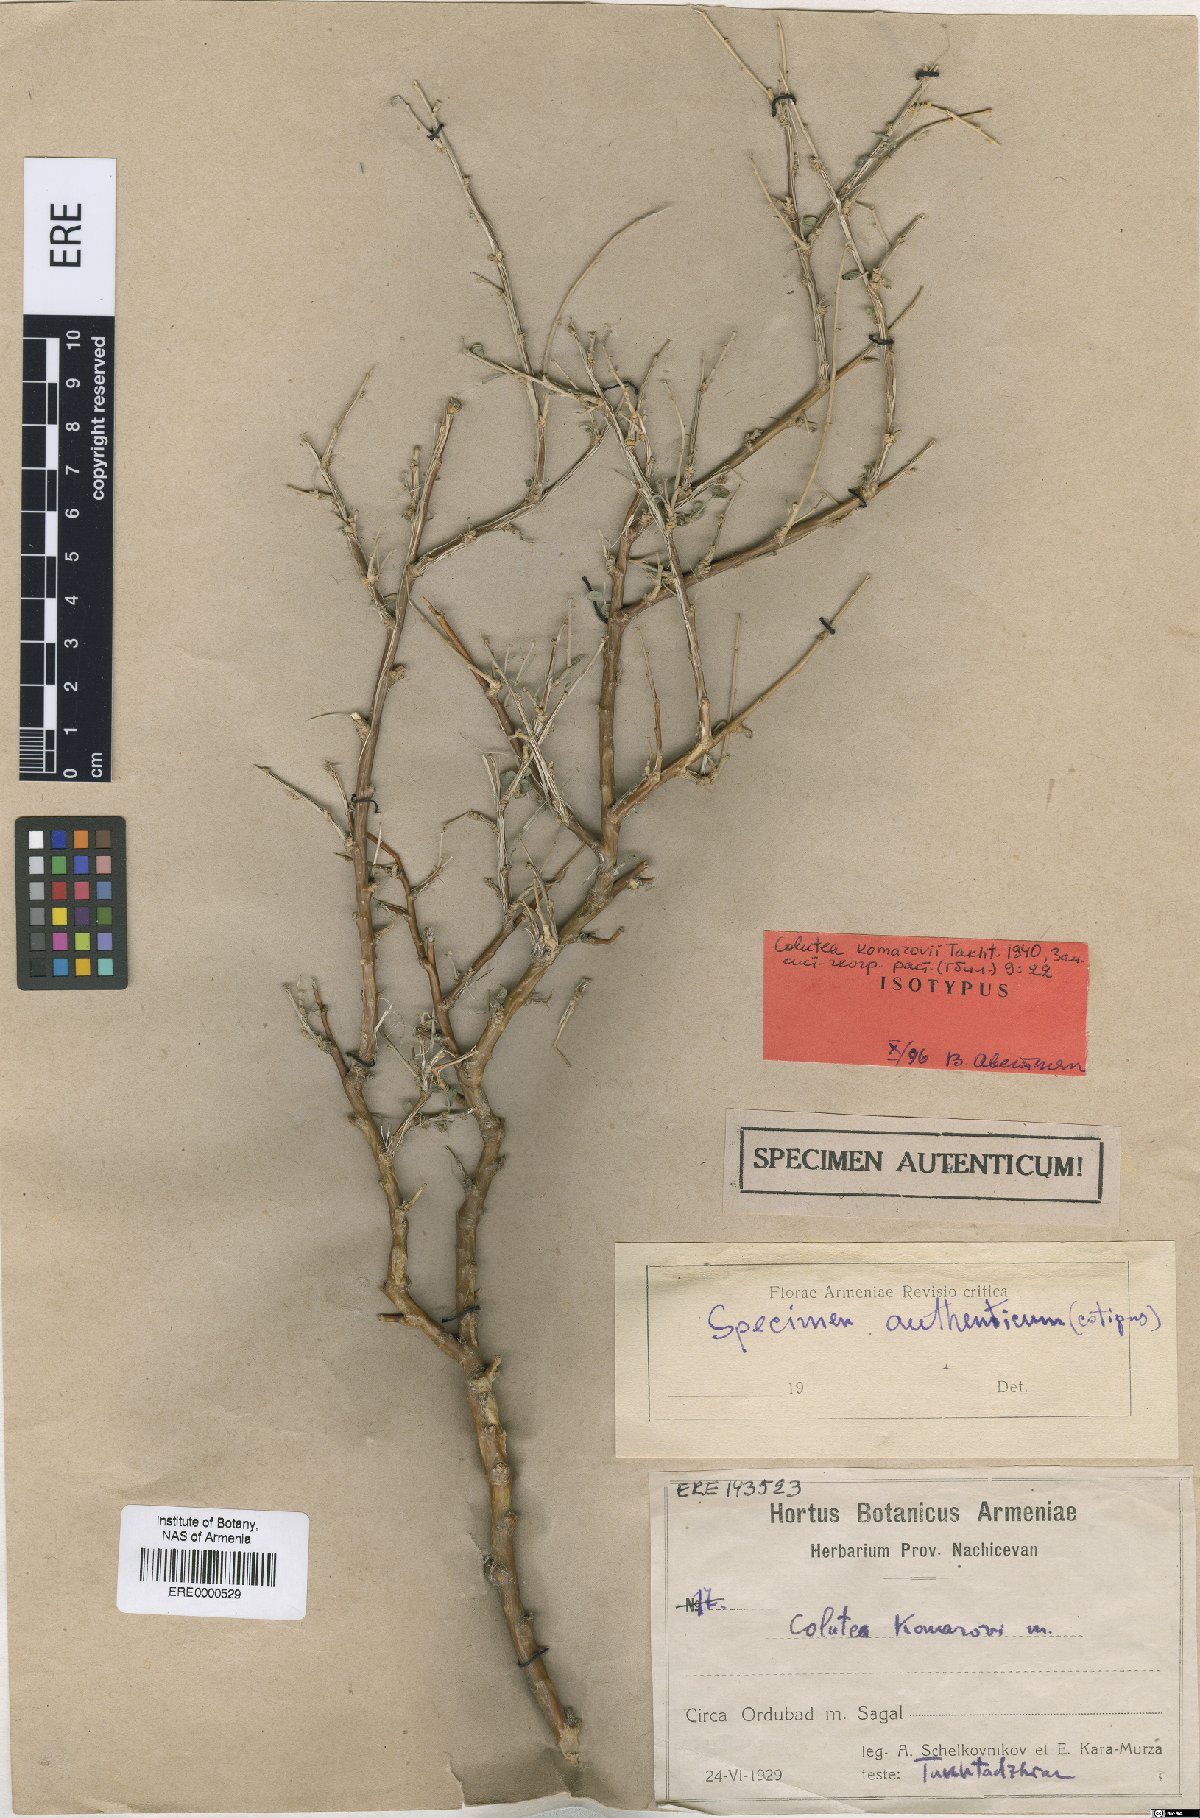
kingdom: Plantae
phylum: Tracheophyta
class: Magnoliopsida
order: Fabales
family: Fabaceae
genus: Colutea
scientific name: Colutea komarovii
